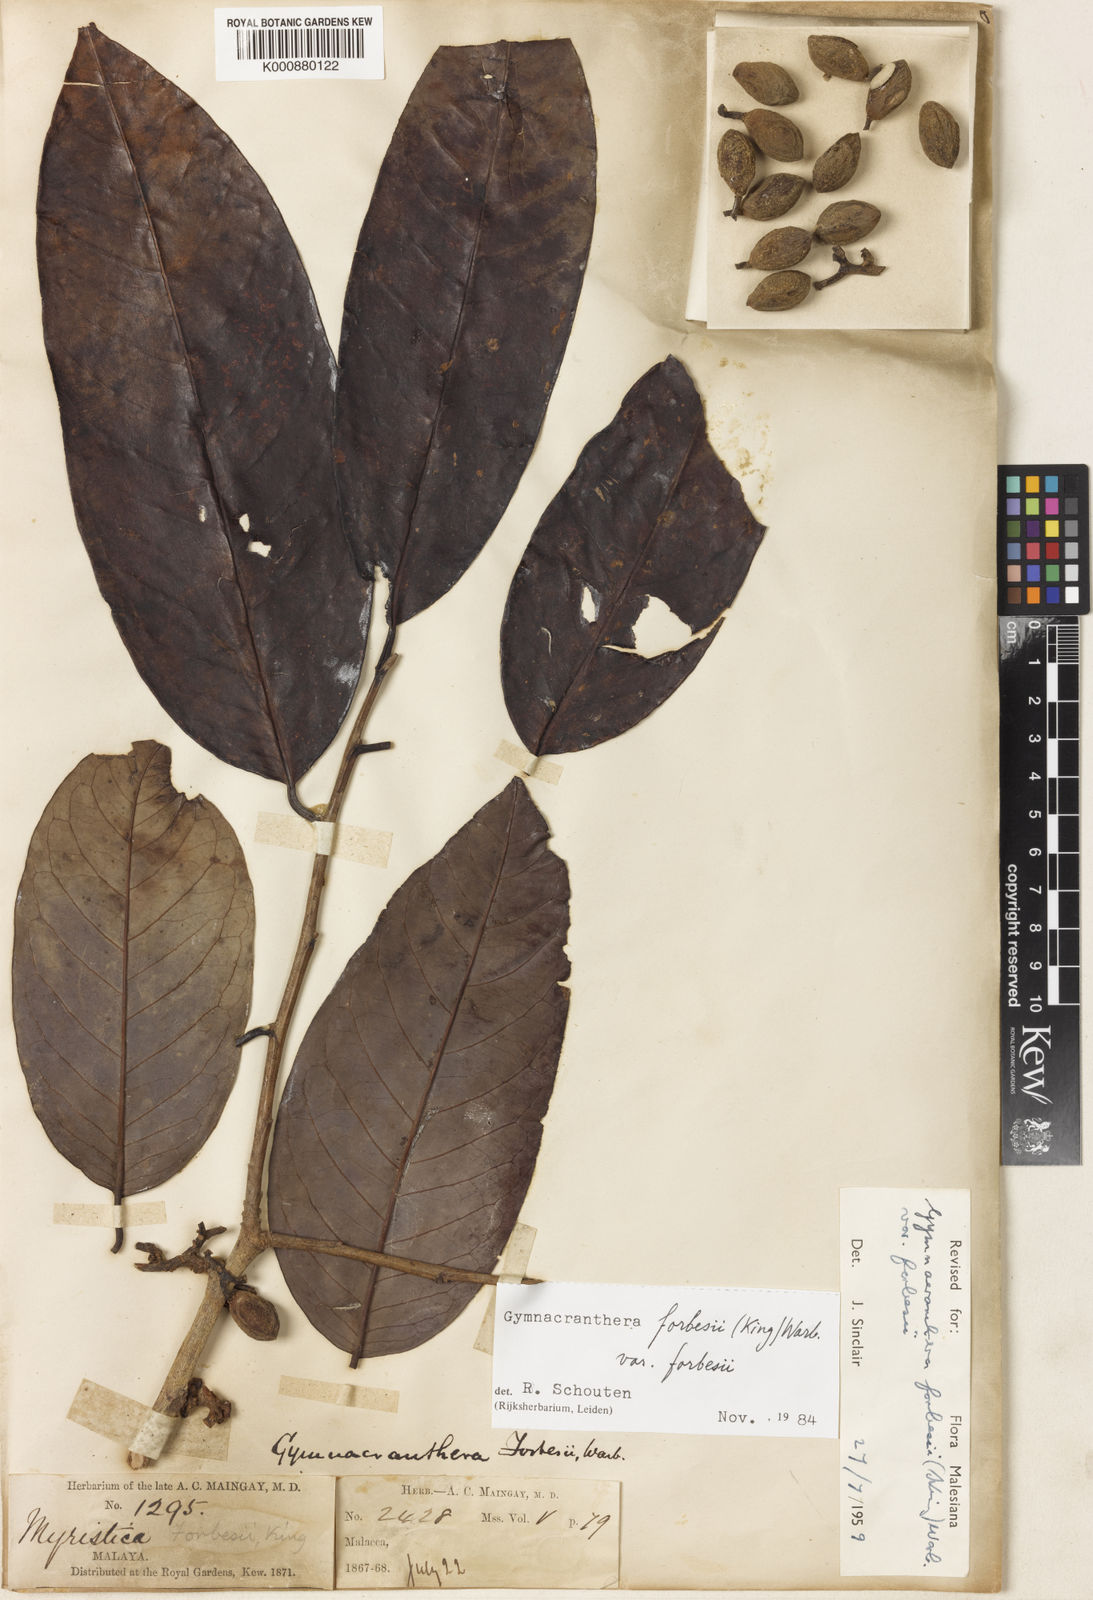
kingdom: Plantae
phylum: Tracheophyta
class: Magnoliopsida
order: Magnoliales
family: Myristicaceae
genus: Gymnacranthera
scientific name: Gymnacranthera forbesii
